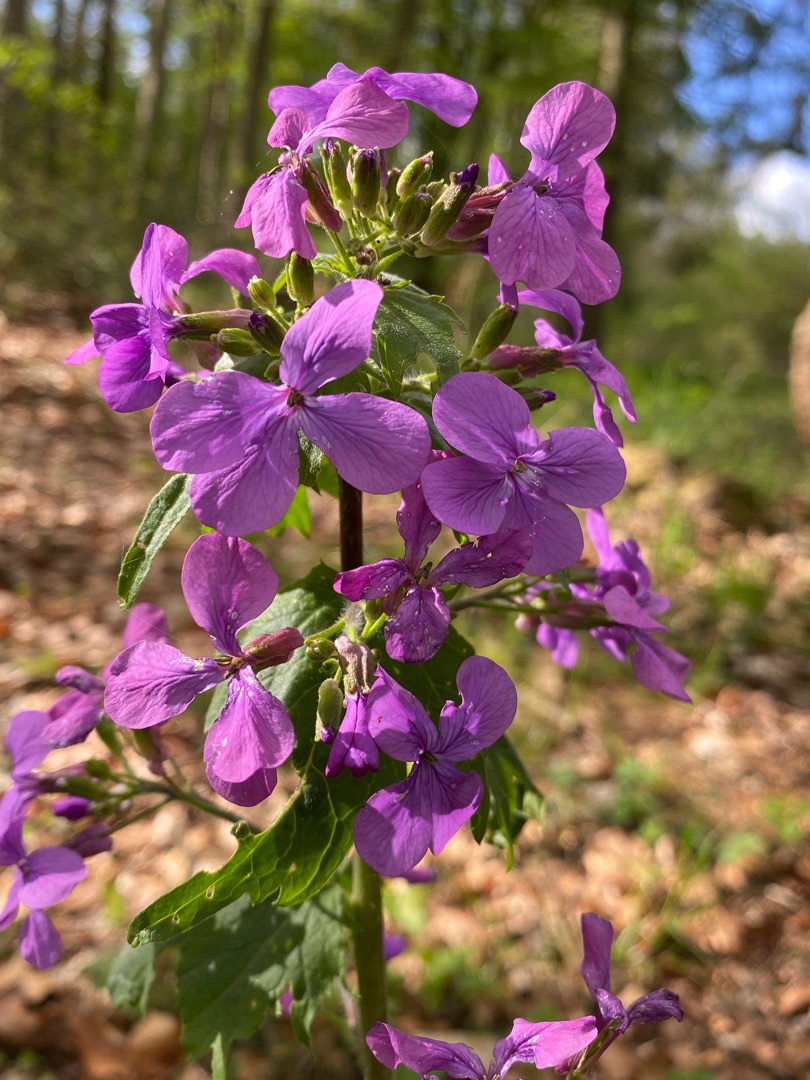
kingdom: Plantae
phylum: Tracheophyta
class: Magnoliopsida
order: Brassicales
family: Brassicaceae
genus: Lunaria
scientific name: Lunaria annua
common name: Judaspenge
